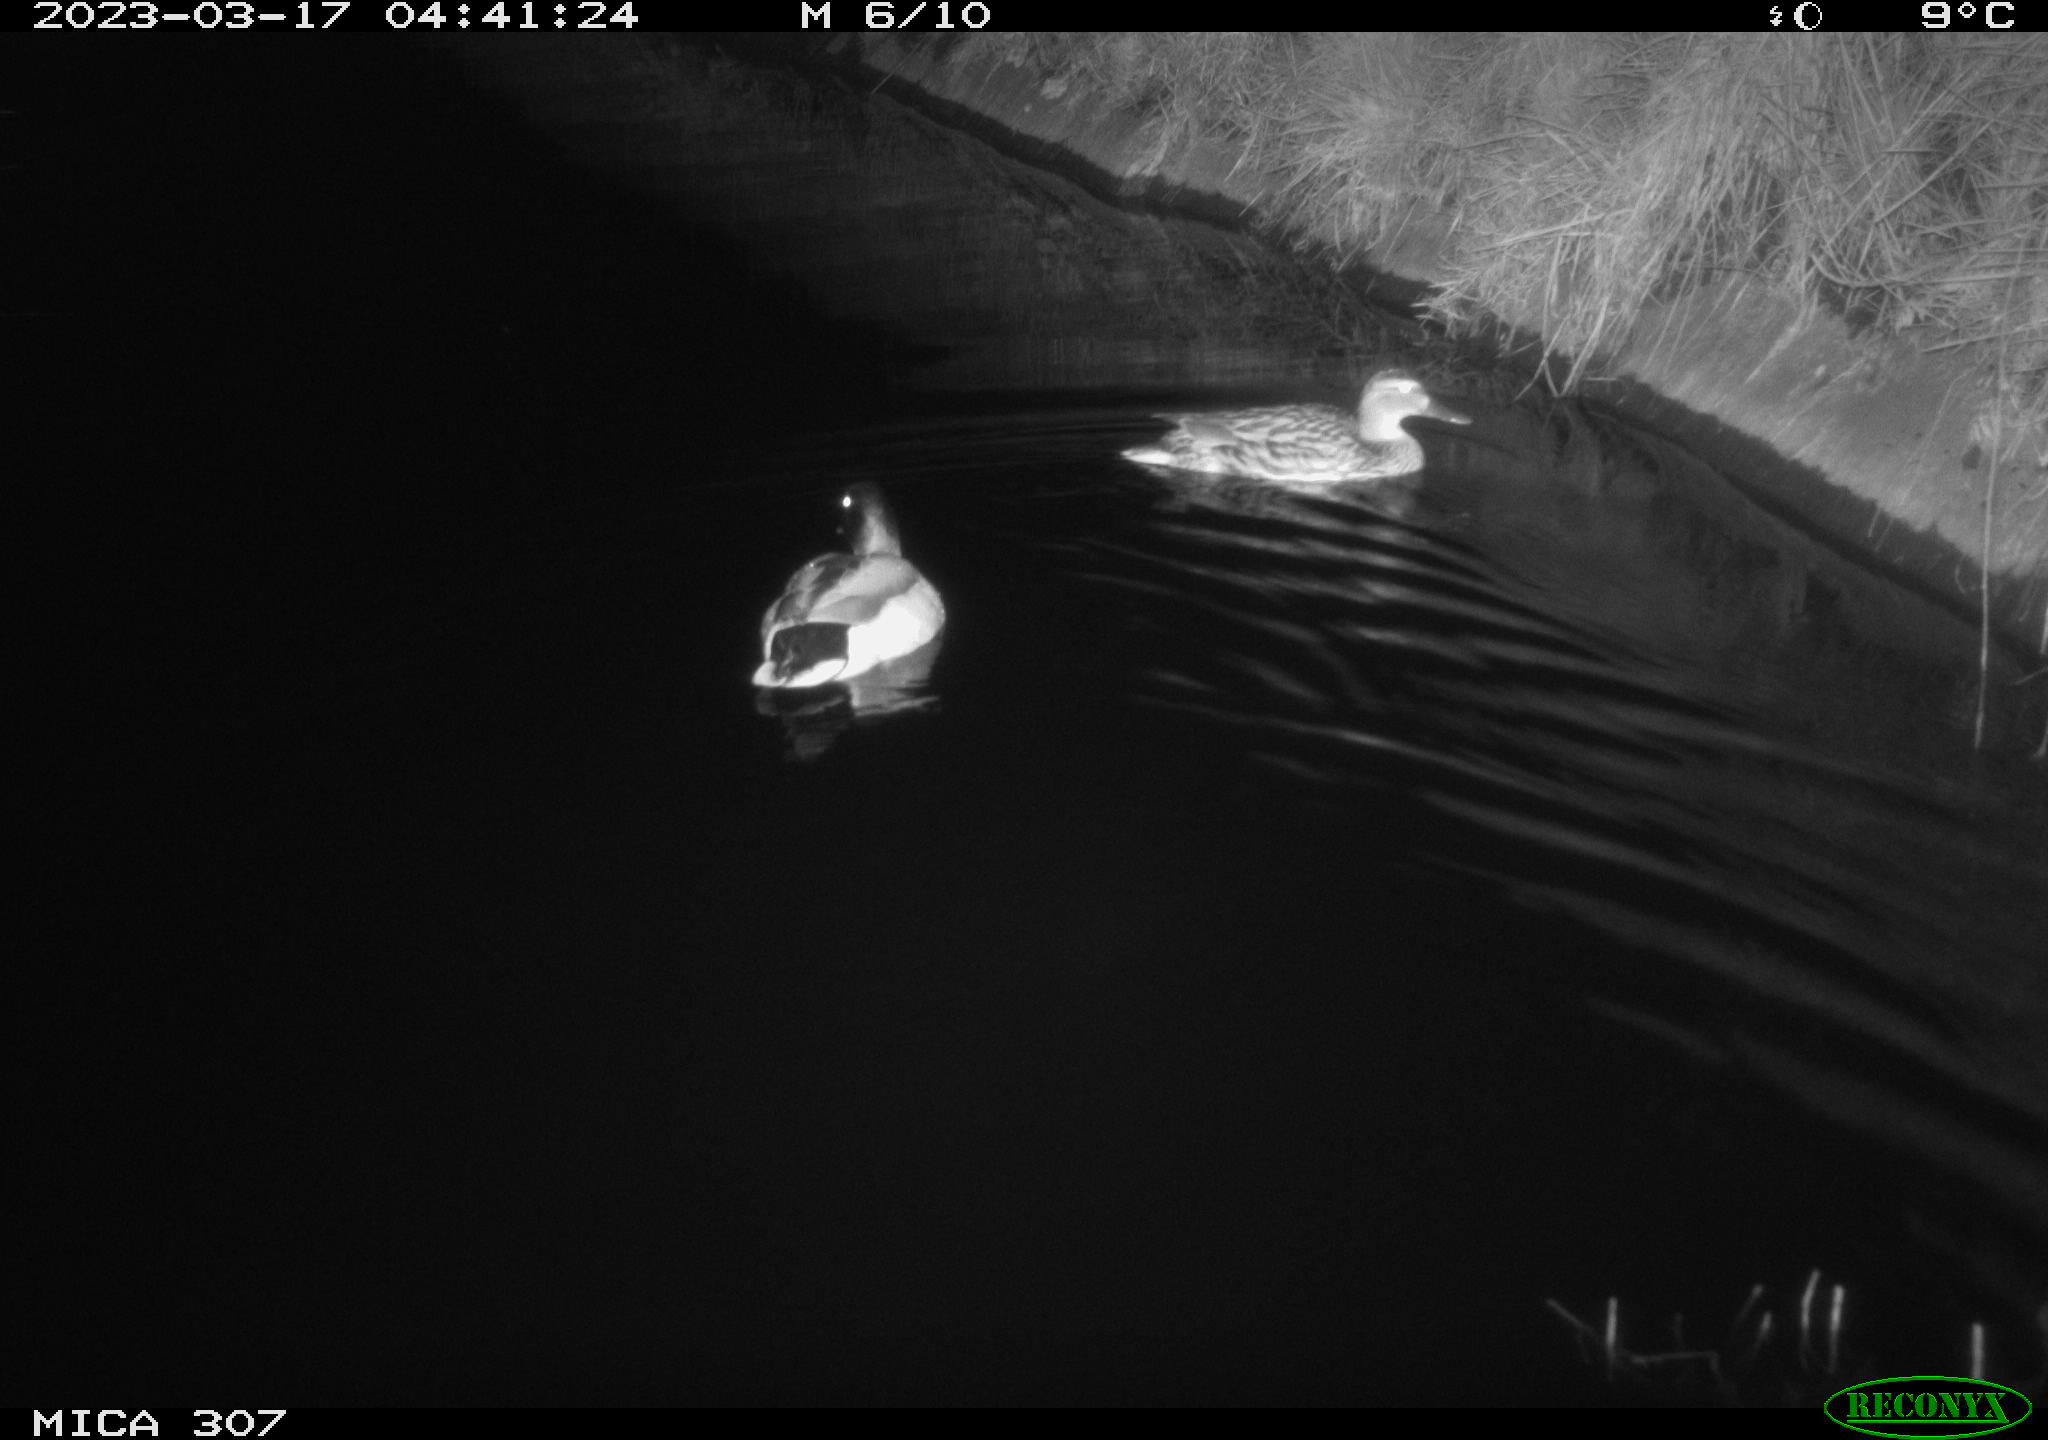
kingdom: Animalia
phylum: Chordata
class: Aves
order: Anseriformes
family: Anatidae
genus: Anas
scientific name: Anas
